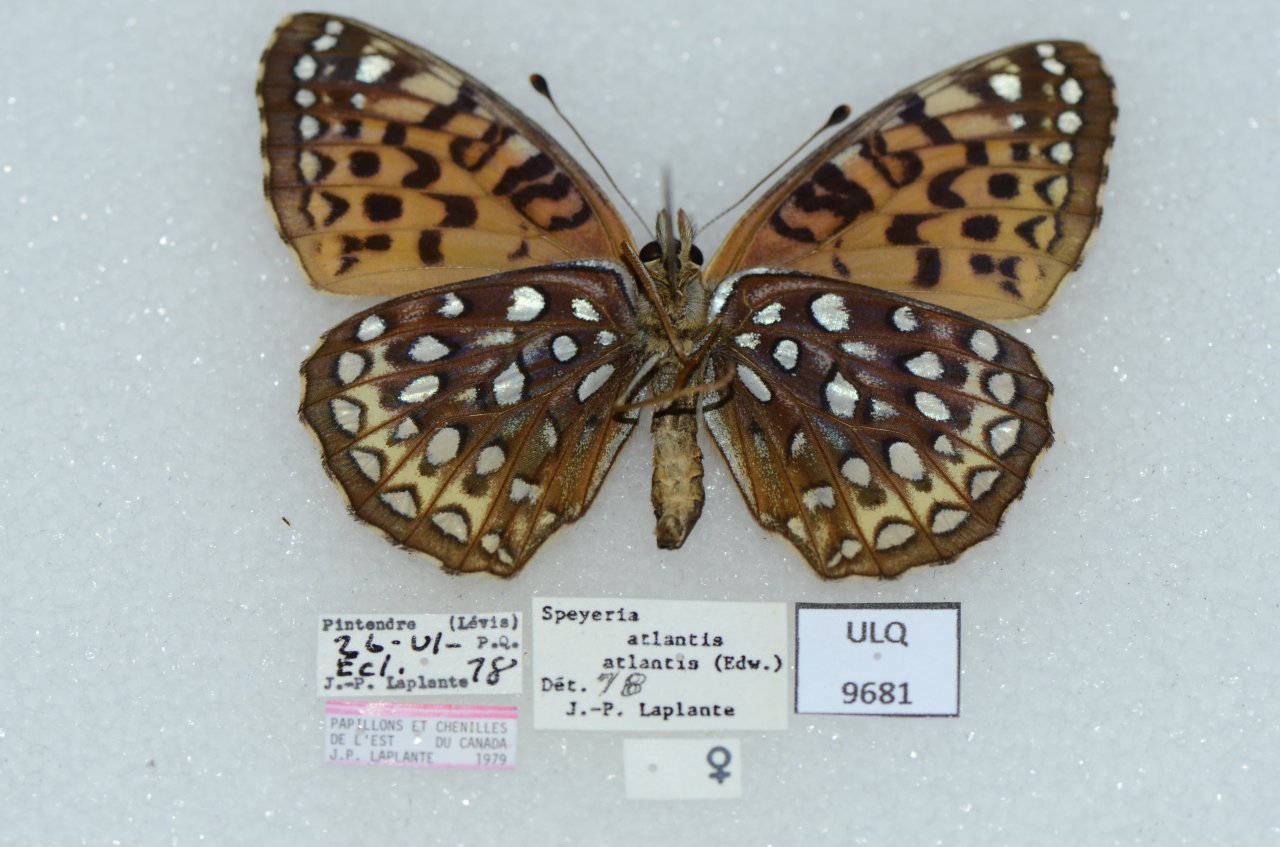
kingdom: Animalia
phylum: Arthropoda
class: Insecta
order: Lepidoptera
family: Nymphalidae
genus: Speyeria
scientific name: Speyeria atlantis
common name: Atlantis Fritillary
